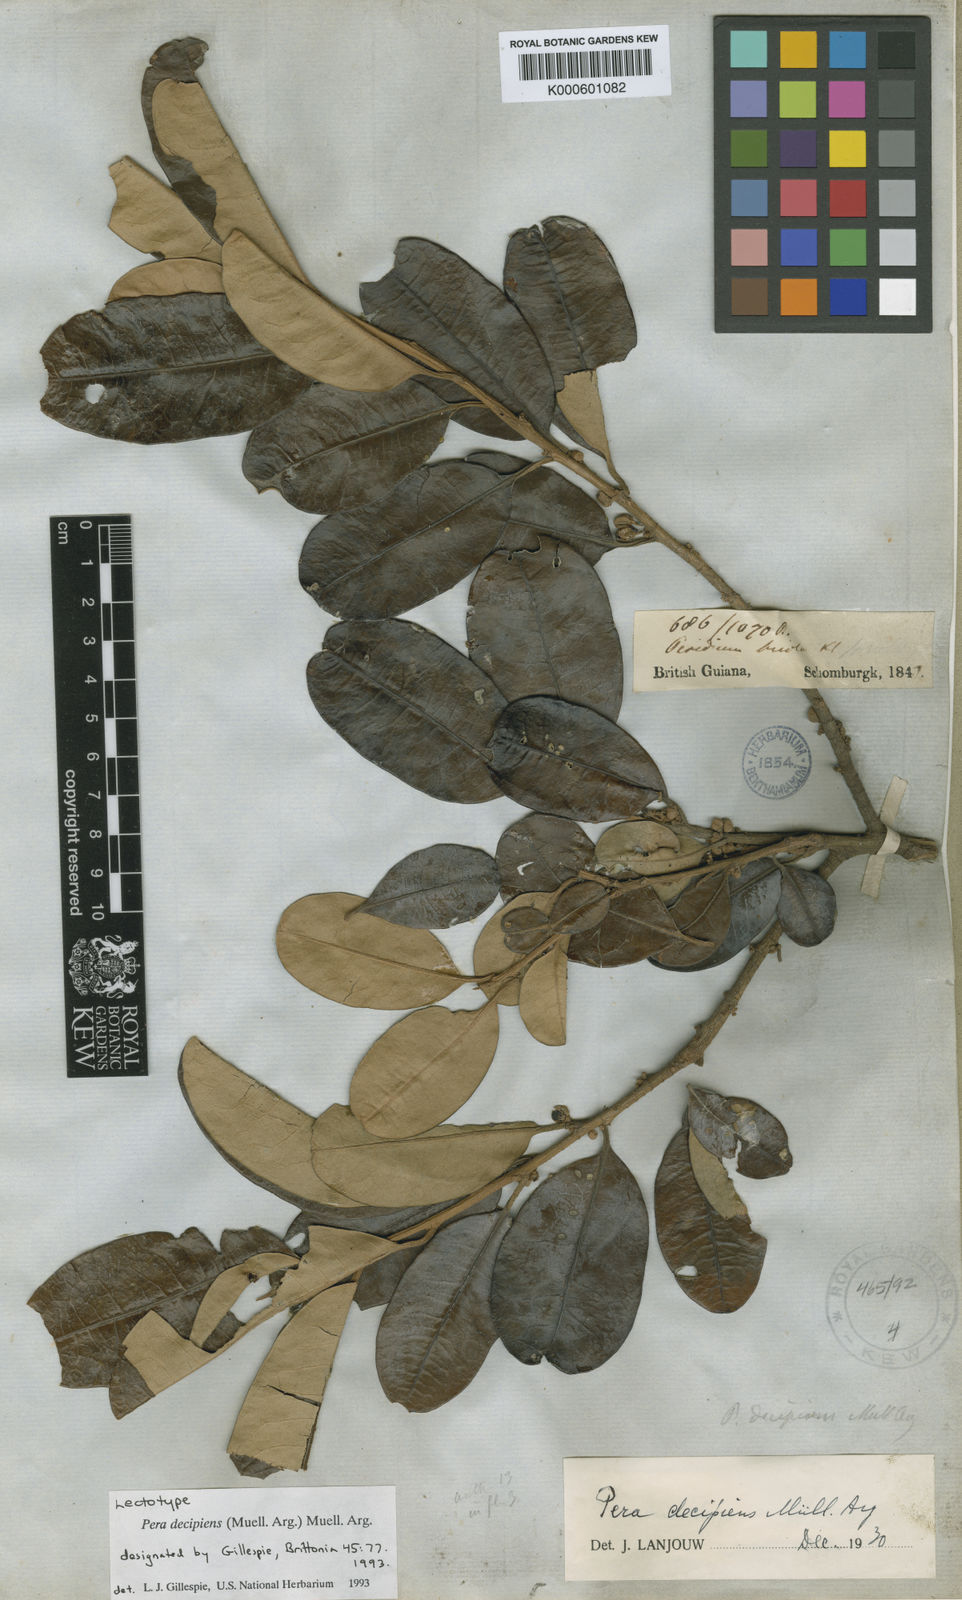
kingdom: Plantae
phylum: Tracheophyta
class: Magnoliopsida
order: Malpighiales
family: Peraceae
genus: Pera
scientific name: Pera
